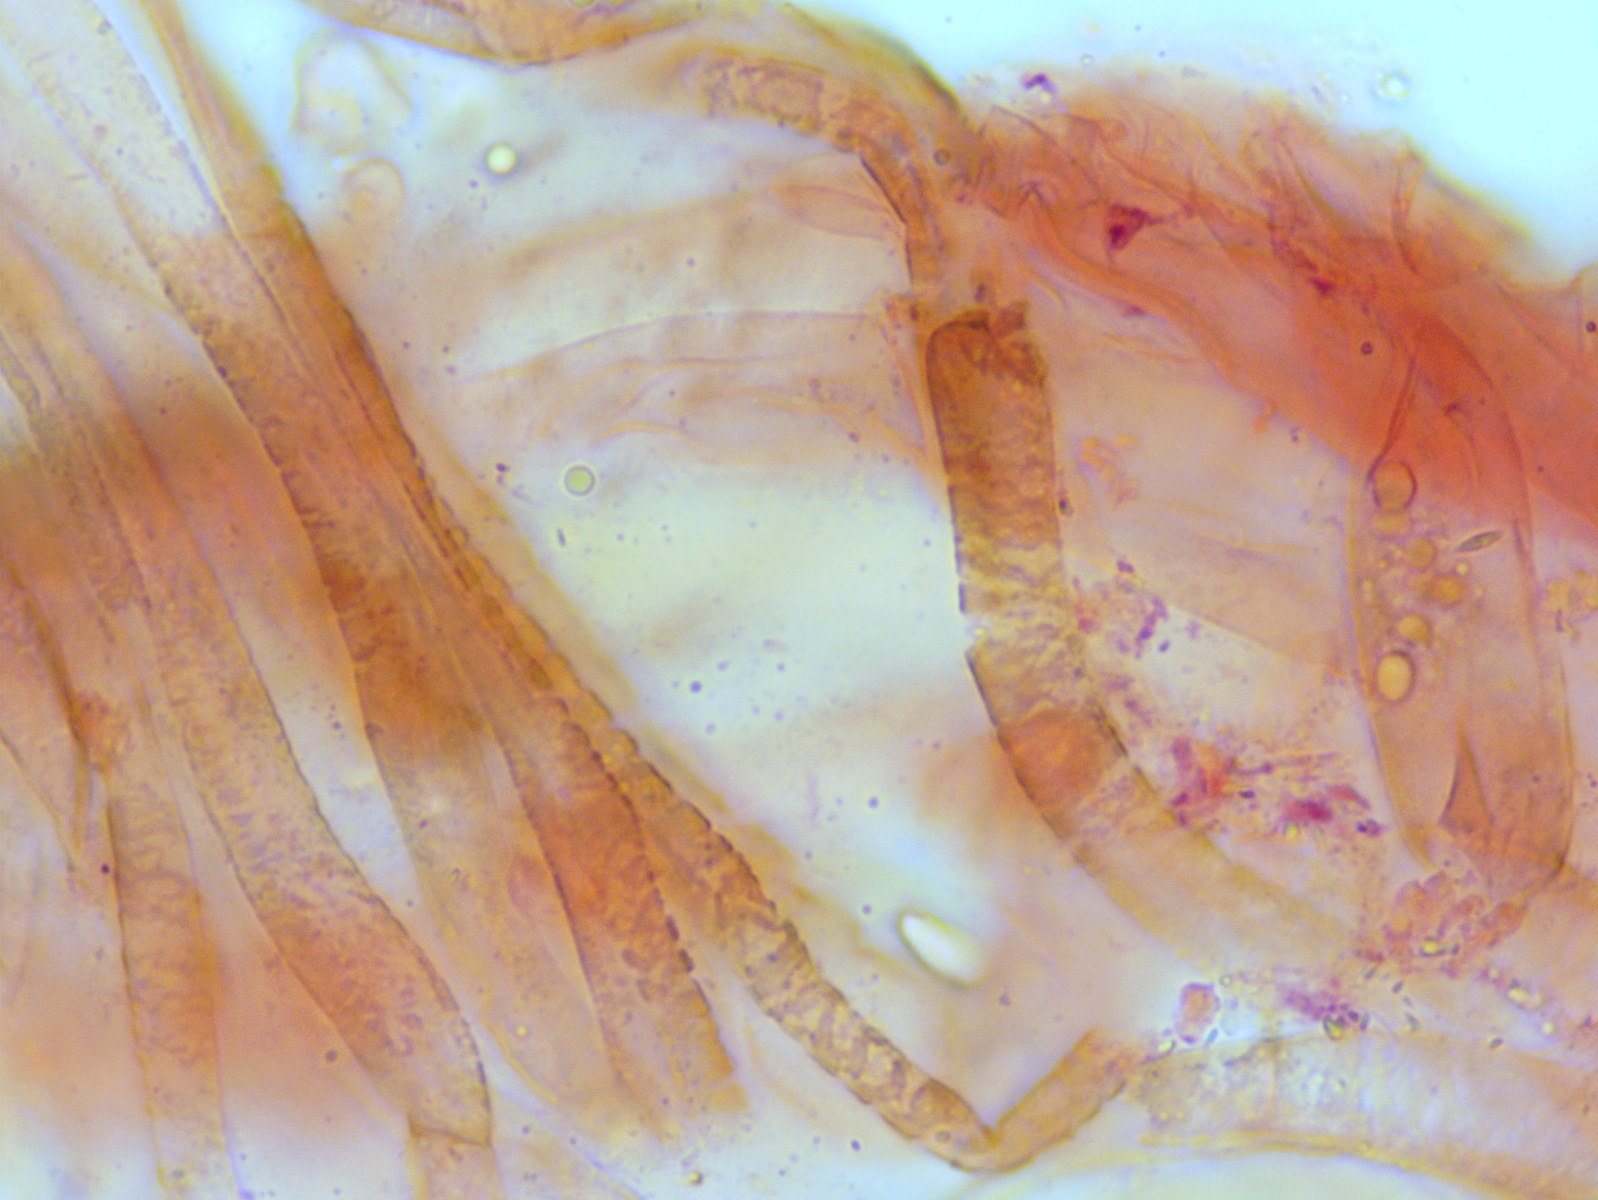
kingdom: Fungi
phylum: Basidiomycota
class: Agaricomycetes
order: Agaricales
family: Entolomataceae
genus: Entoloma
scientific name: Entoloma vernum
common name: vår-rødblad
